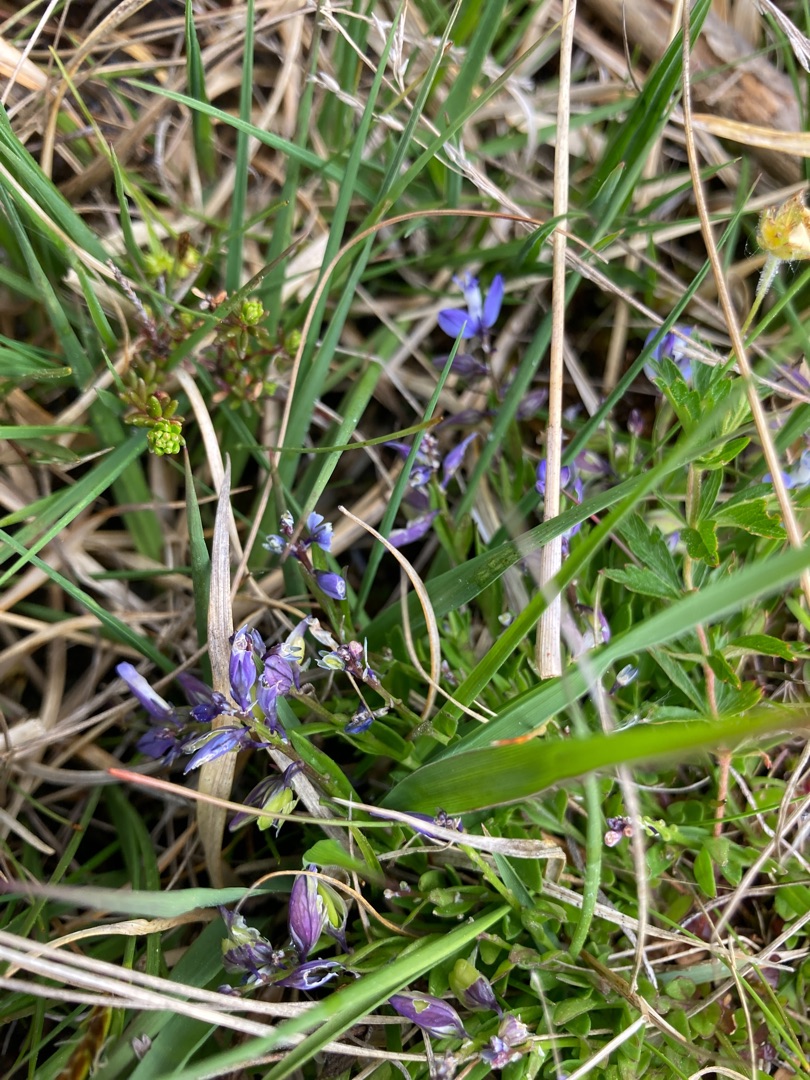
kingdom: Plantae
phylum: Tracheophyta
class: Magnoliopsida
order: Fabales
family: Polygalaceae
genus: Polygala
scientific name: Polygala vulgaris
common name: Almindelig mælkeurt
